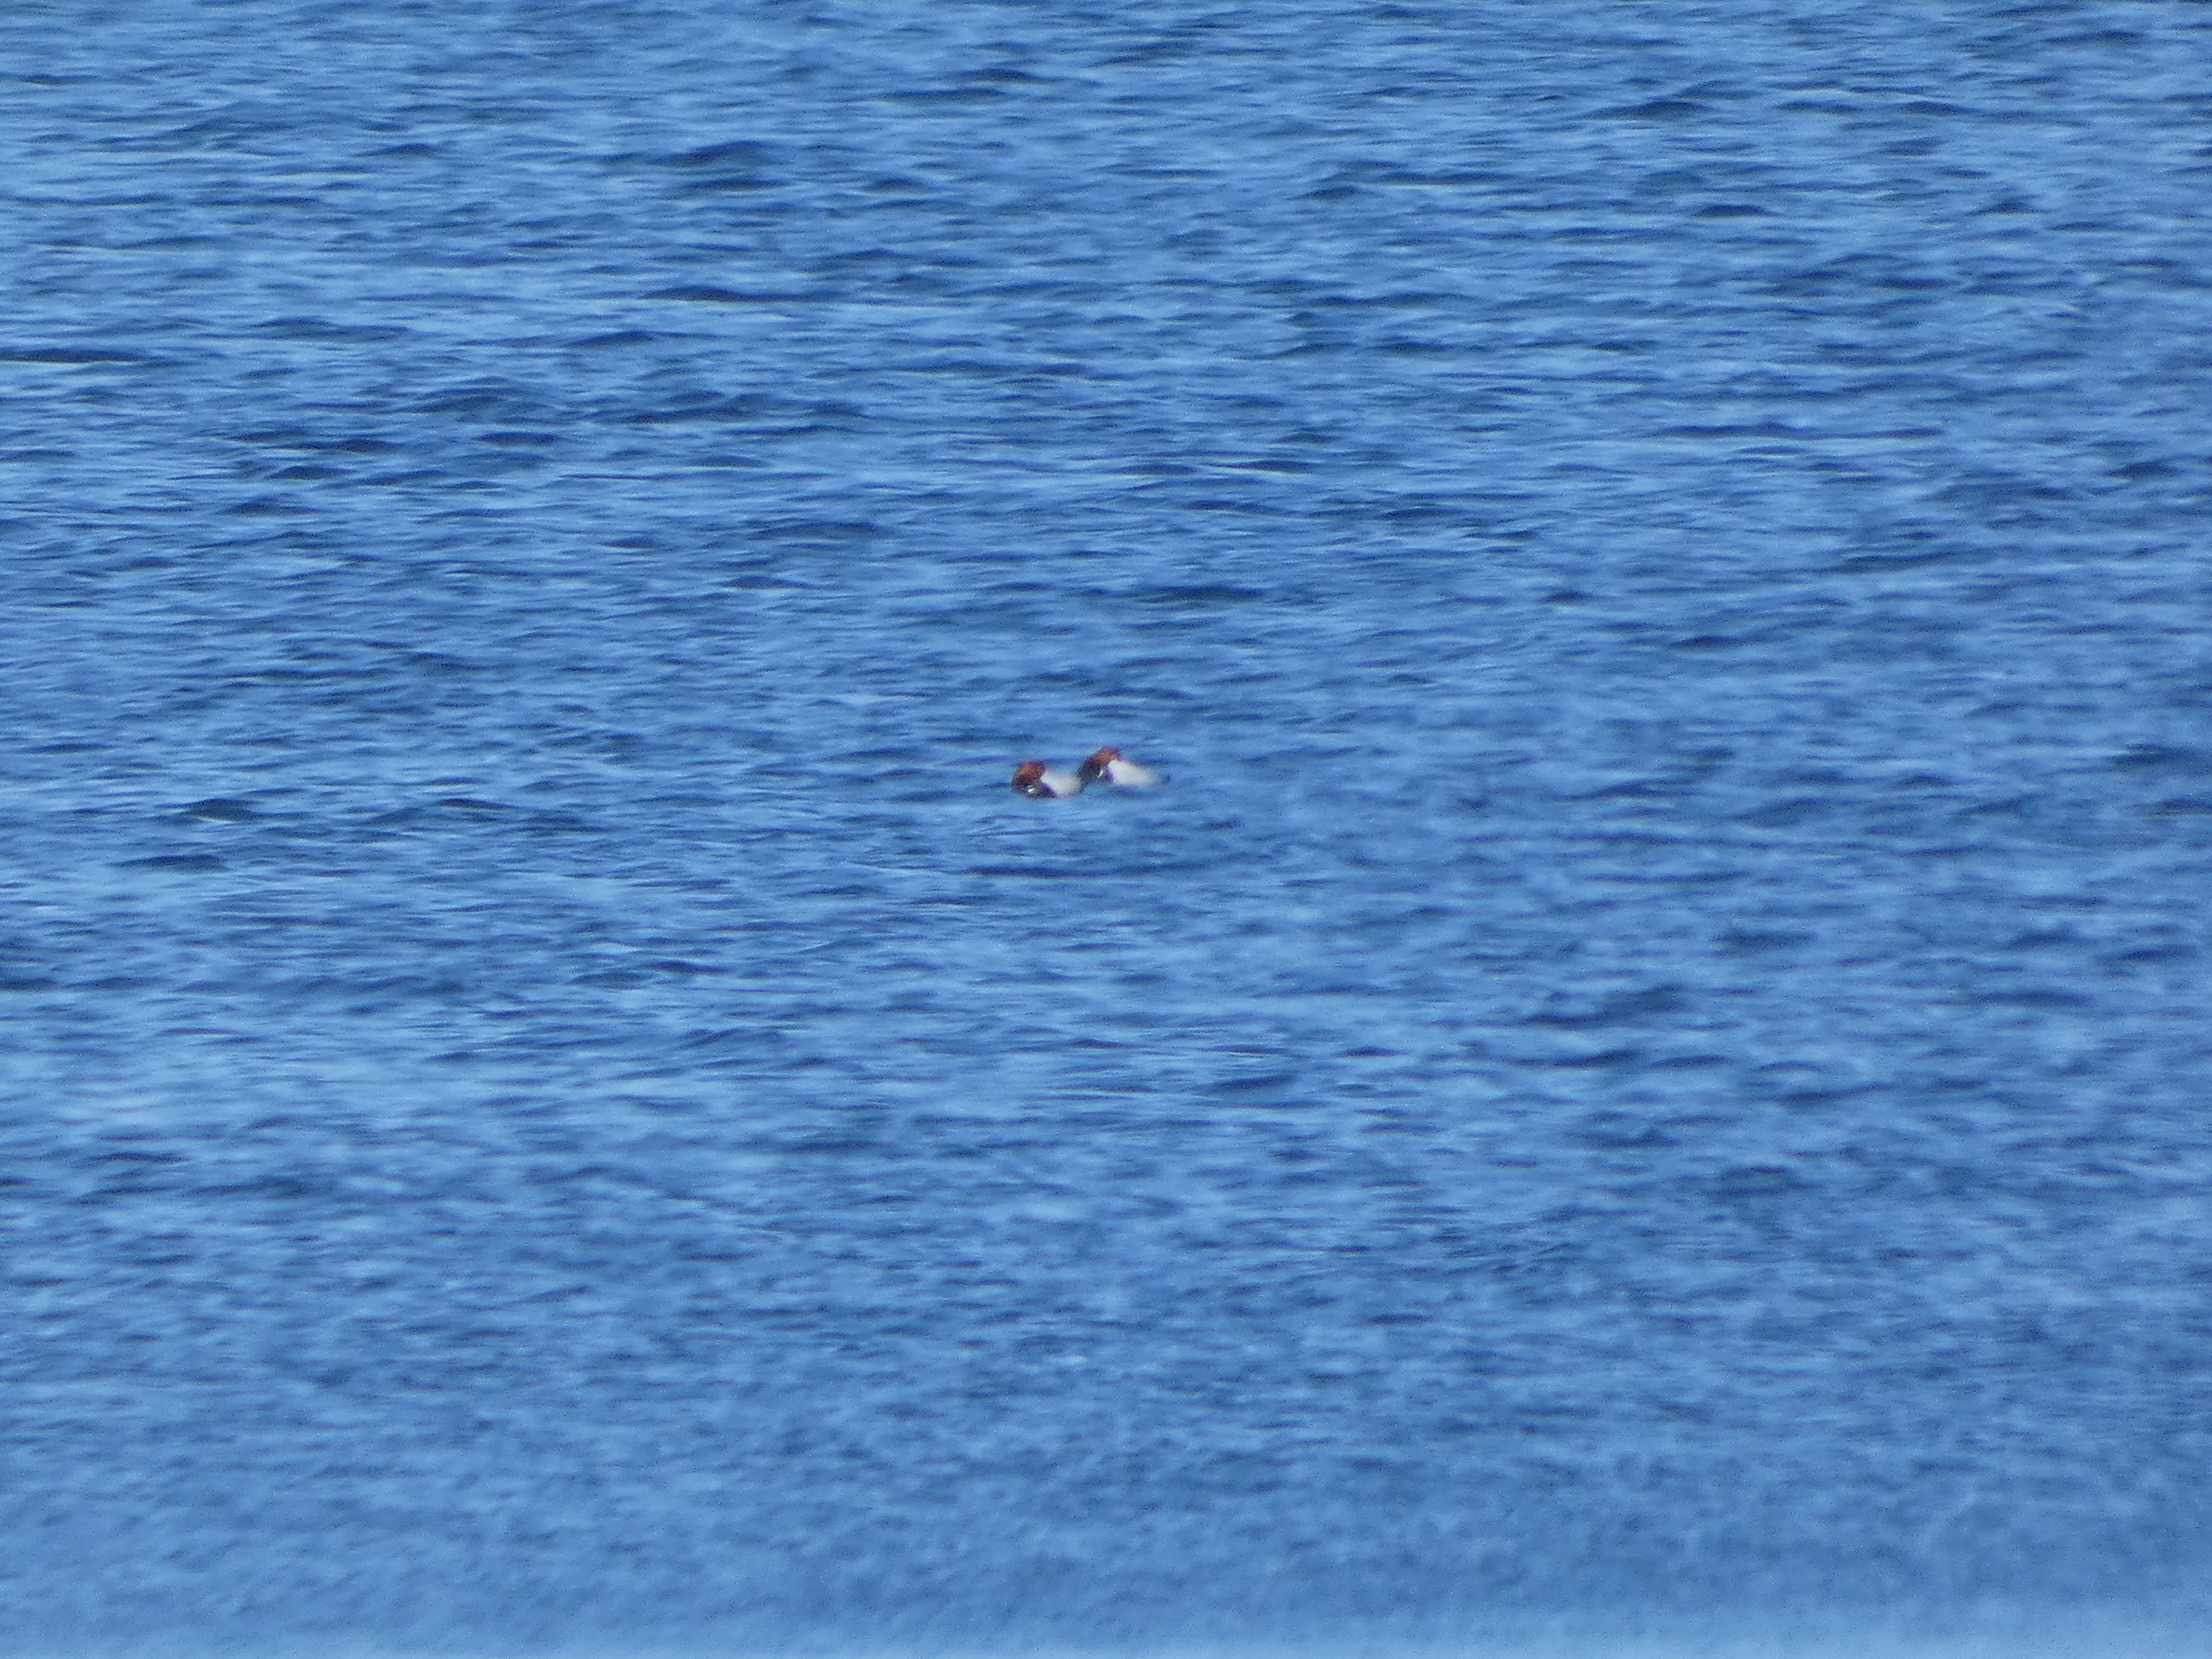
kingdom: Animalia
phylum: Chordata
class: Aves
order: Anseriformes
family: Anatidae
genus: Aythya
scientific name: Aythya ferina
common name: Taffeland
